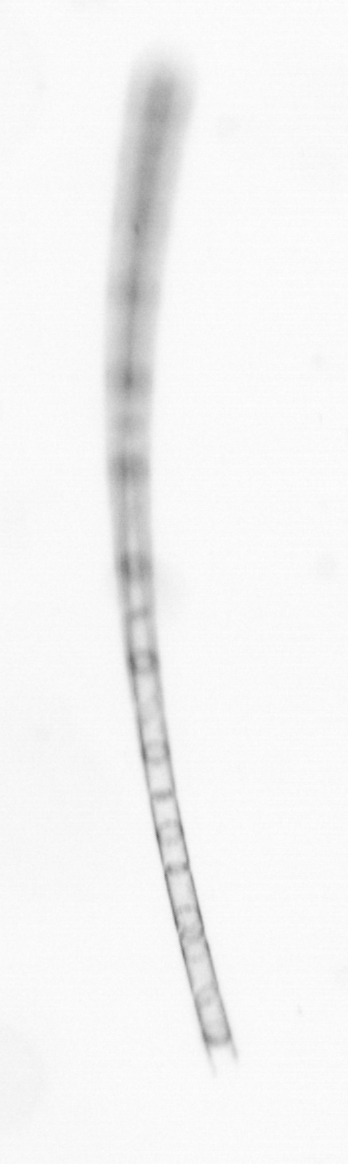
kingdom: Chromista
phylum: Ochrophyta
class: Bacillariophyceae
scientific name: Bacillariophyceae
